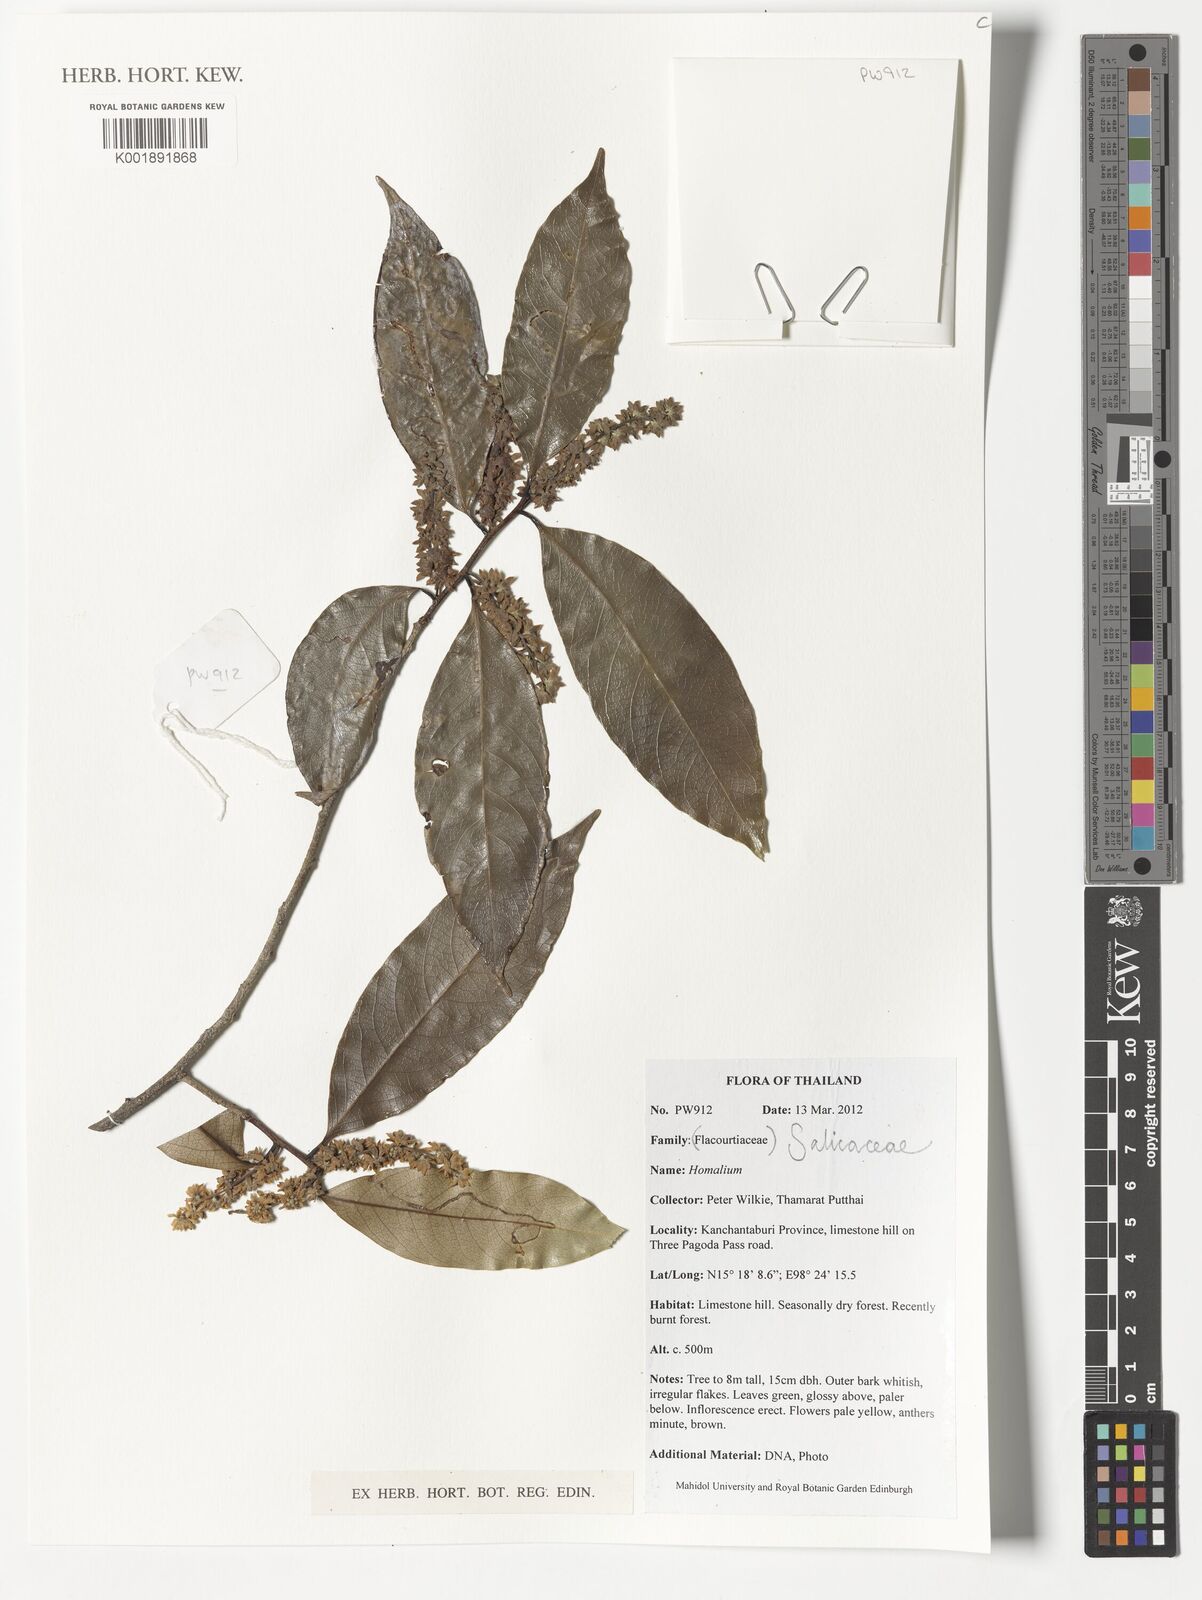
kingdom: Plantae
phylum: Tracheophyta
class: Magnoliopsida
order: Malpighiales
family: Salicaceae
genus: Homalium
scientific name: Homalium
